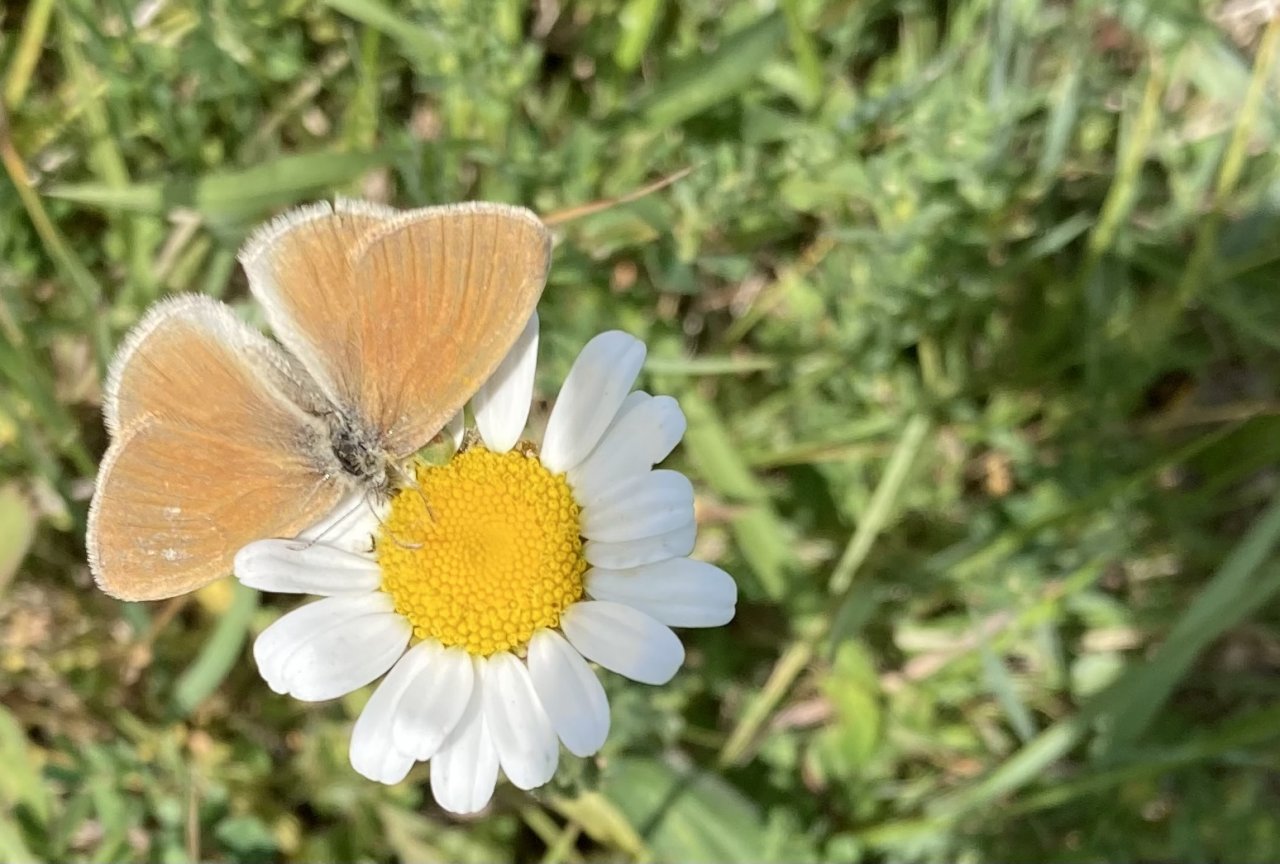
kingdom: Animalia
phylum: Arthropoda
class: Insecta
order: Lepidoptera
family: Nymphalidae
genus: Coenonympha
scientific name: Coenonympha tullia
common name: Large Heath
